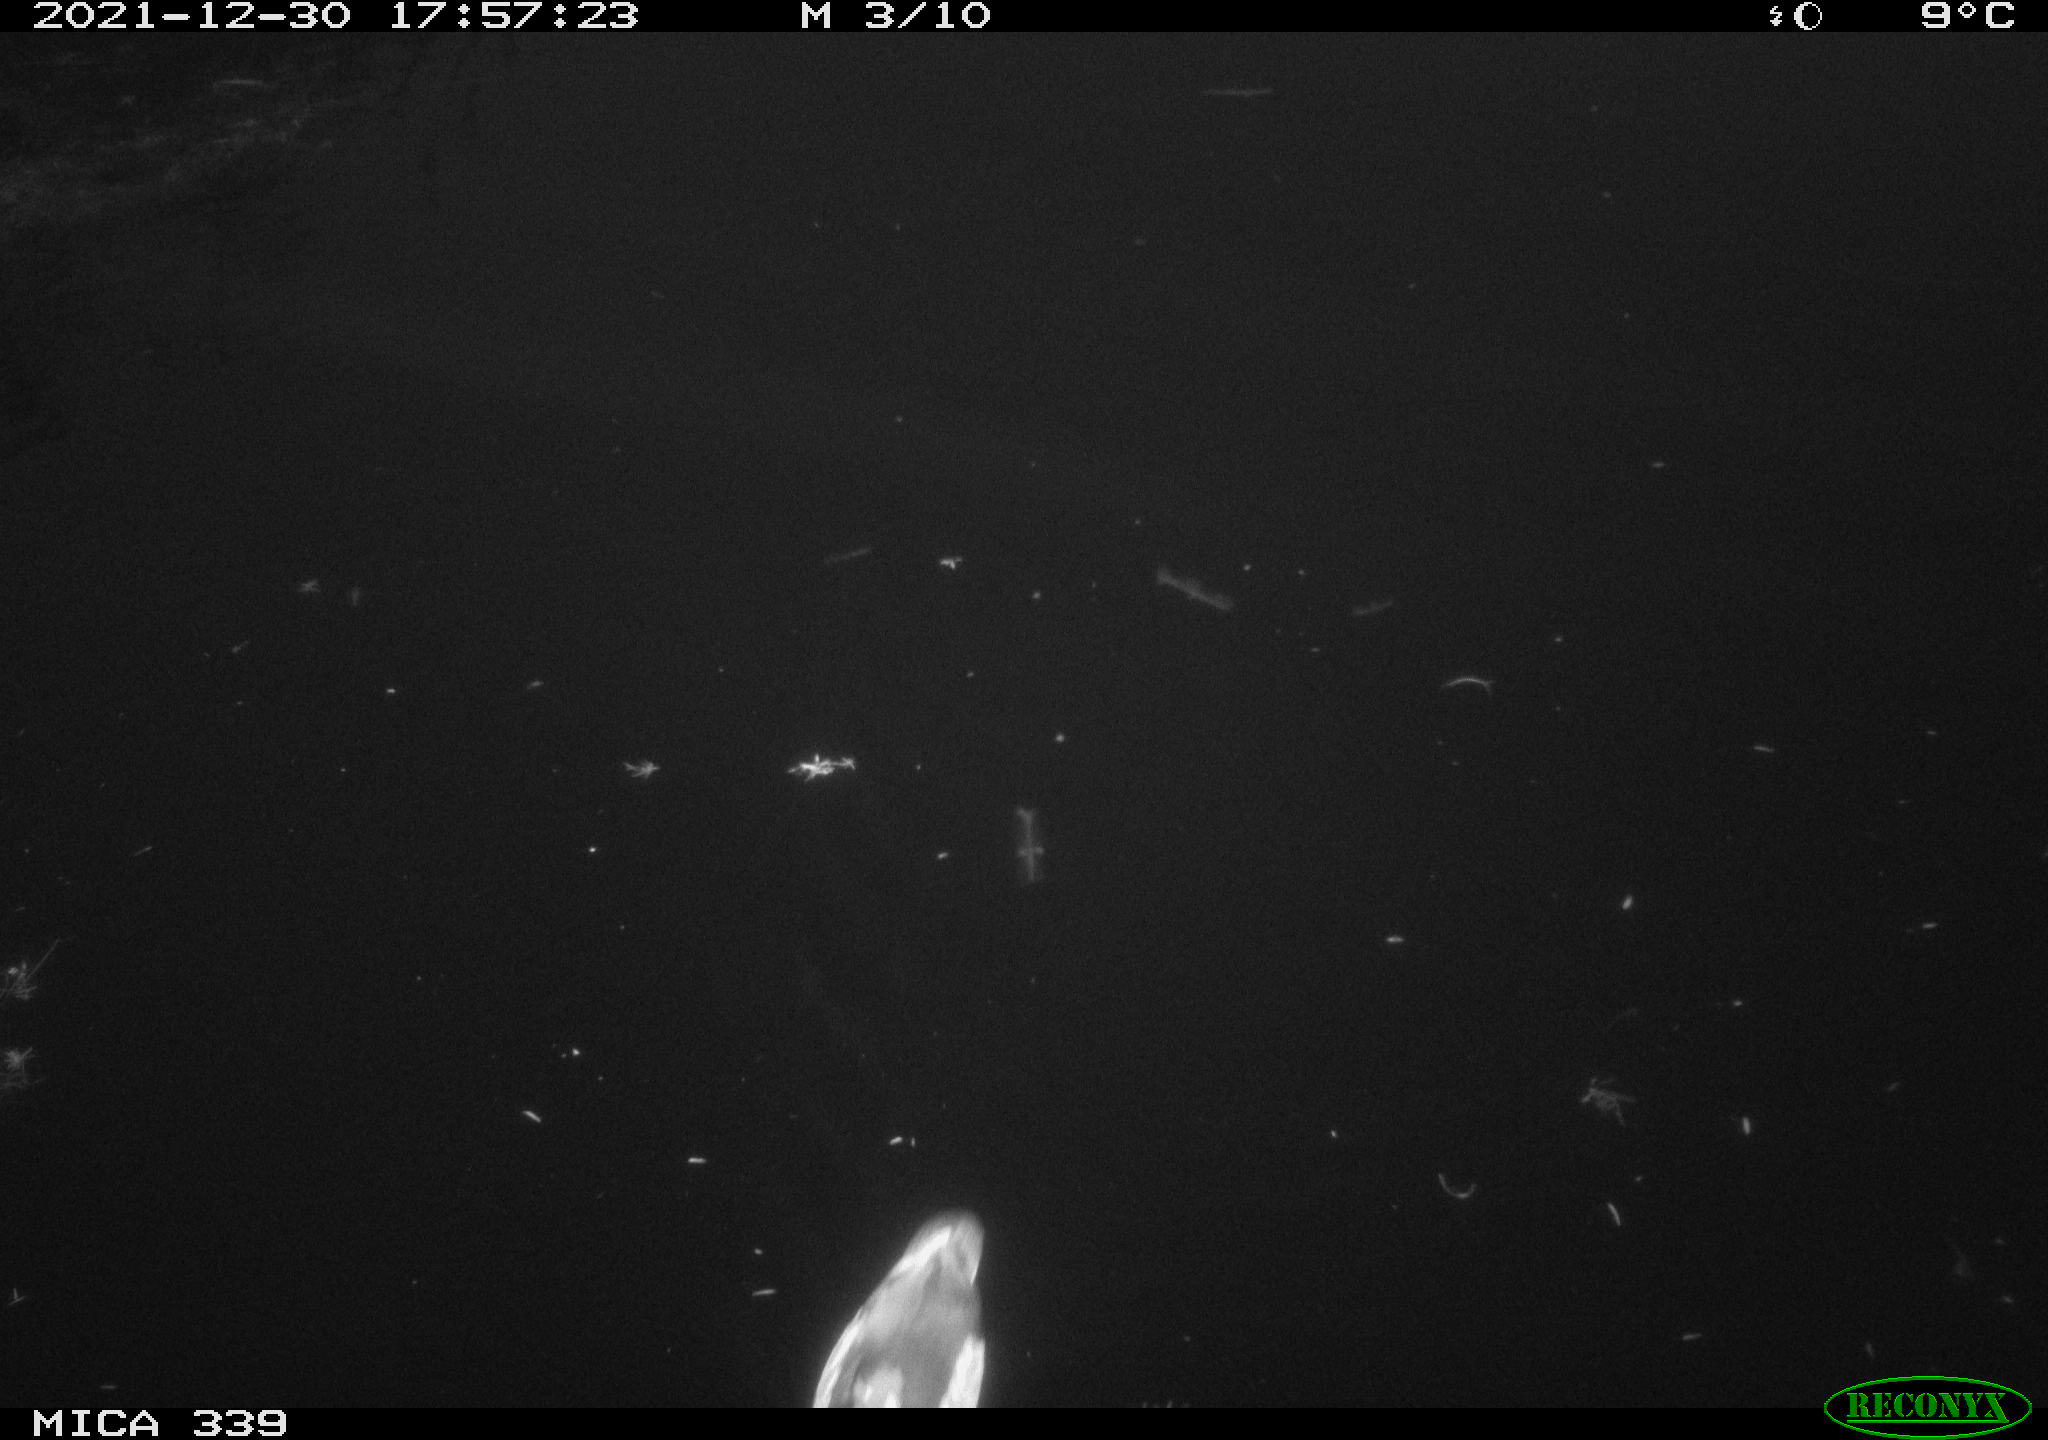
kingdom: Animalia
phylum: Chordata
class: Aves
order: Gruiformes
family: Rallidae
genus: Gallinula
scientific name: Gallinula chloropus
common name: Common moorhen
